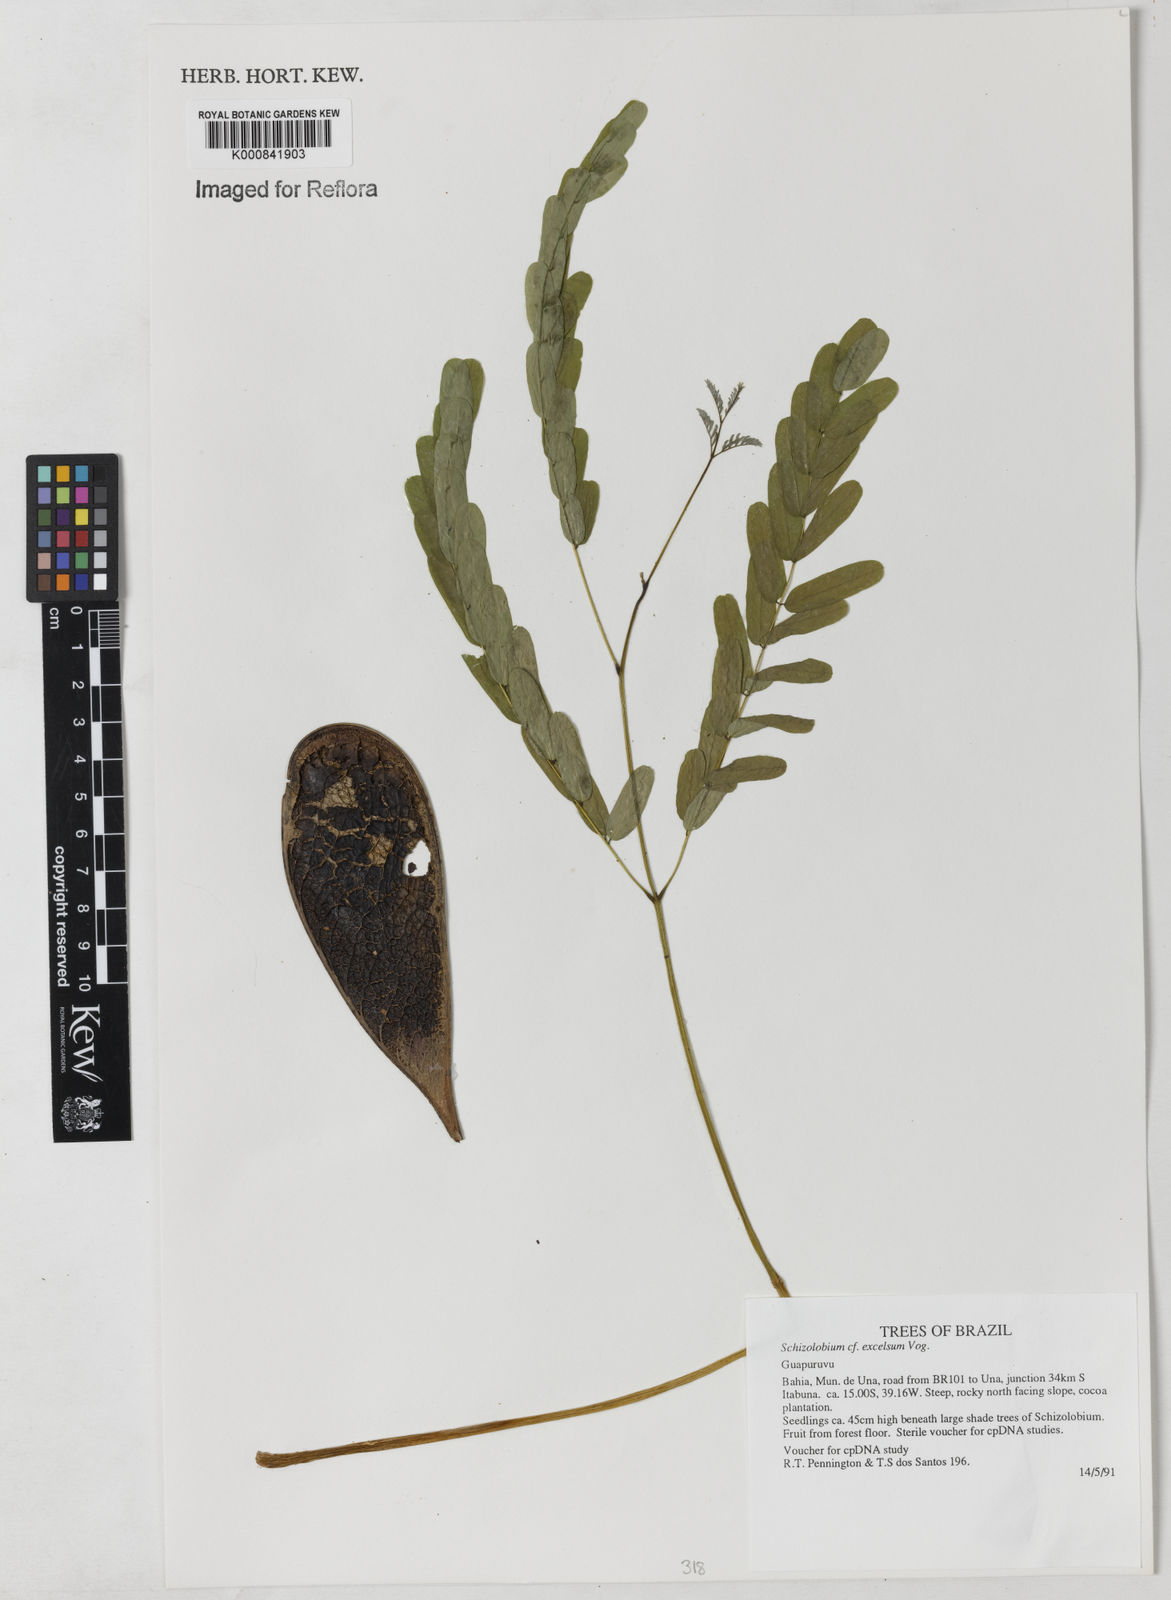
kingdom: Plantae
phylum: Tracheophyta
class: Magnoliopsida
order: Fabales
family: Fabaceae
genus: Schizolobium
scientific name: Schizolobium parahyba
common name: Brazilian firetree
